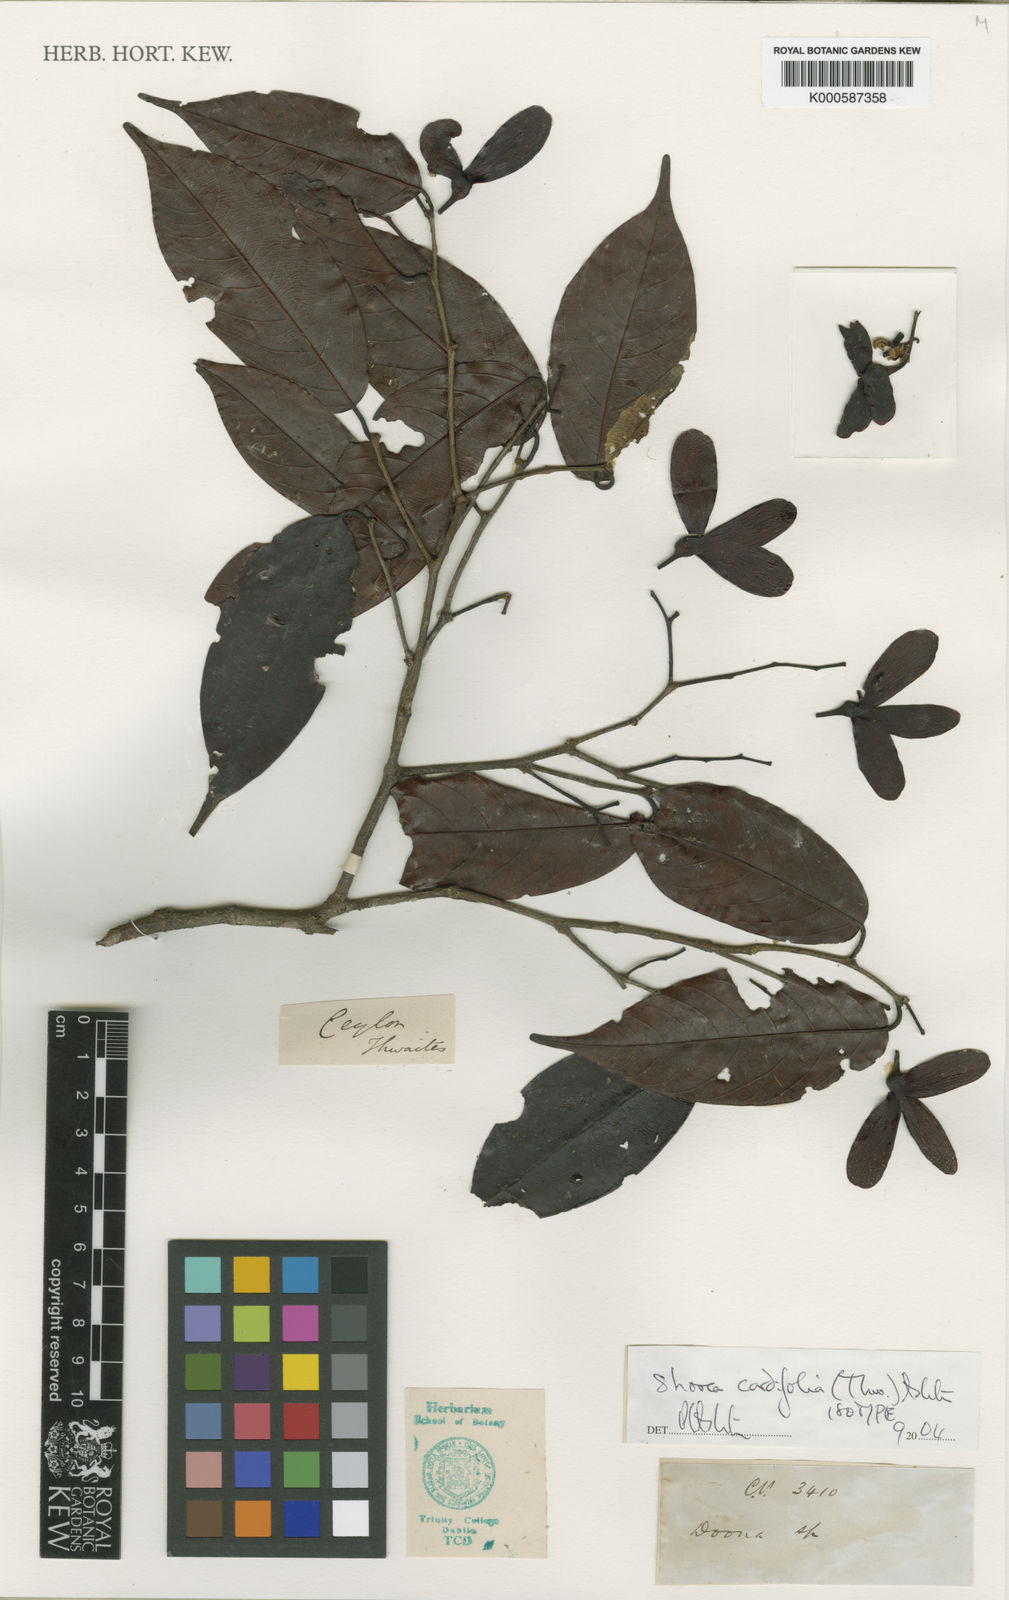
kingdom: Plantae
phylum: Tracheophyta
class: Magnoliopsida
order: Malvales
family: Dipterocarpaceae
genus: Doona
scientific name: Doona cordifolia
